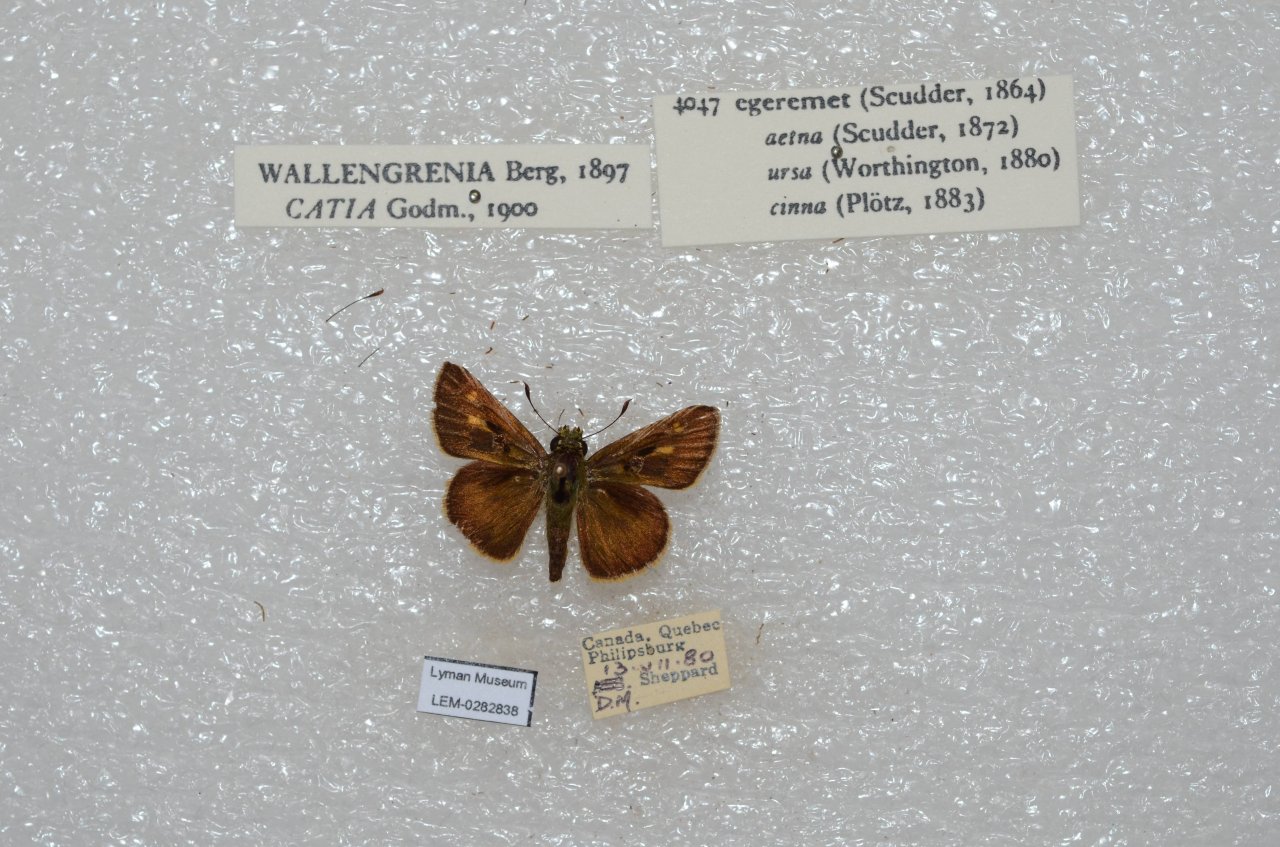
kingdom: Animalia
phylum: Arthropoda
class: Insecta
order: Lepidoptera
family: Hesperiidae
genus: Polites
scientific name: Polites egeremet
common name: Northern Broken-Dash
